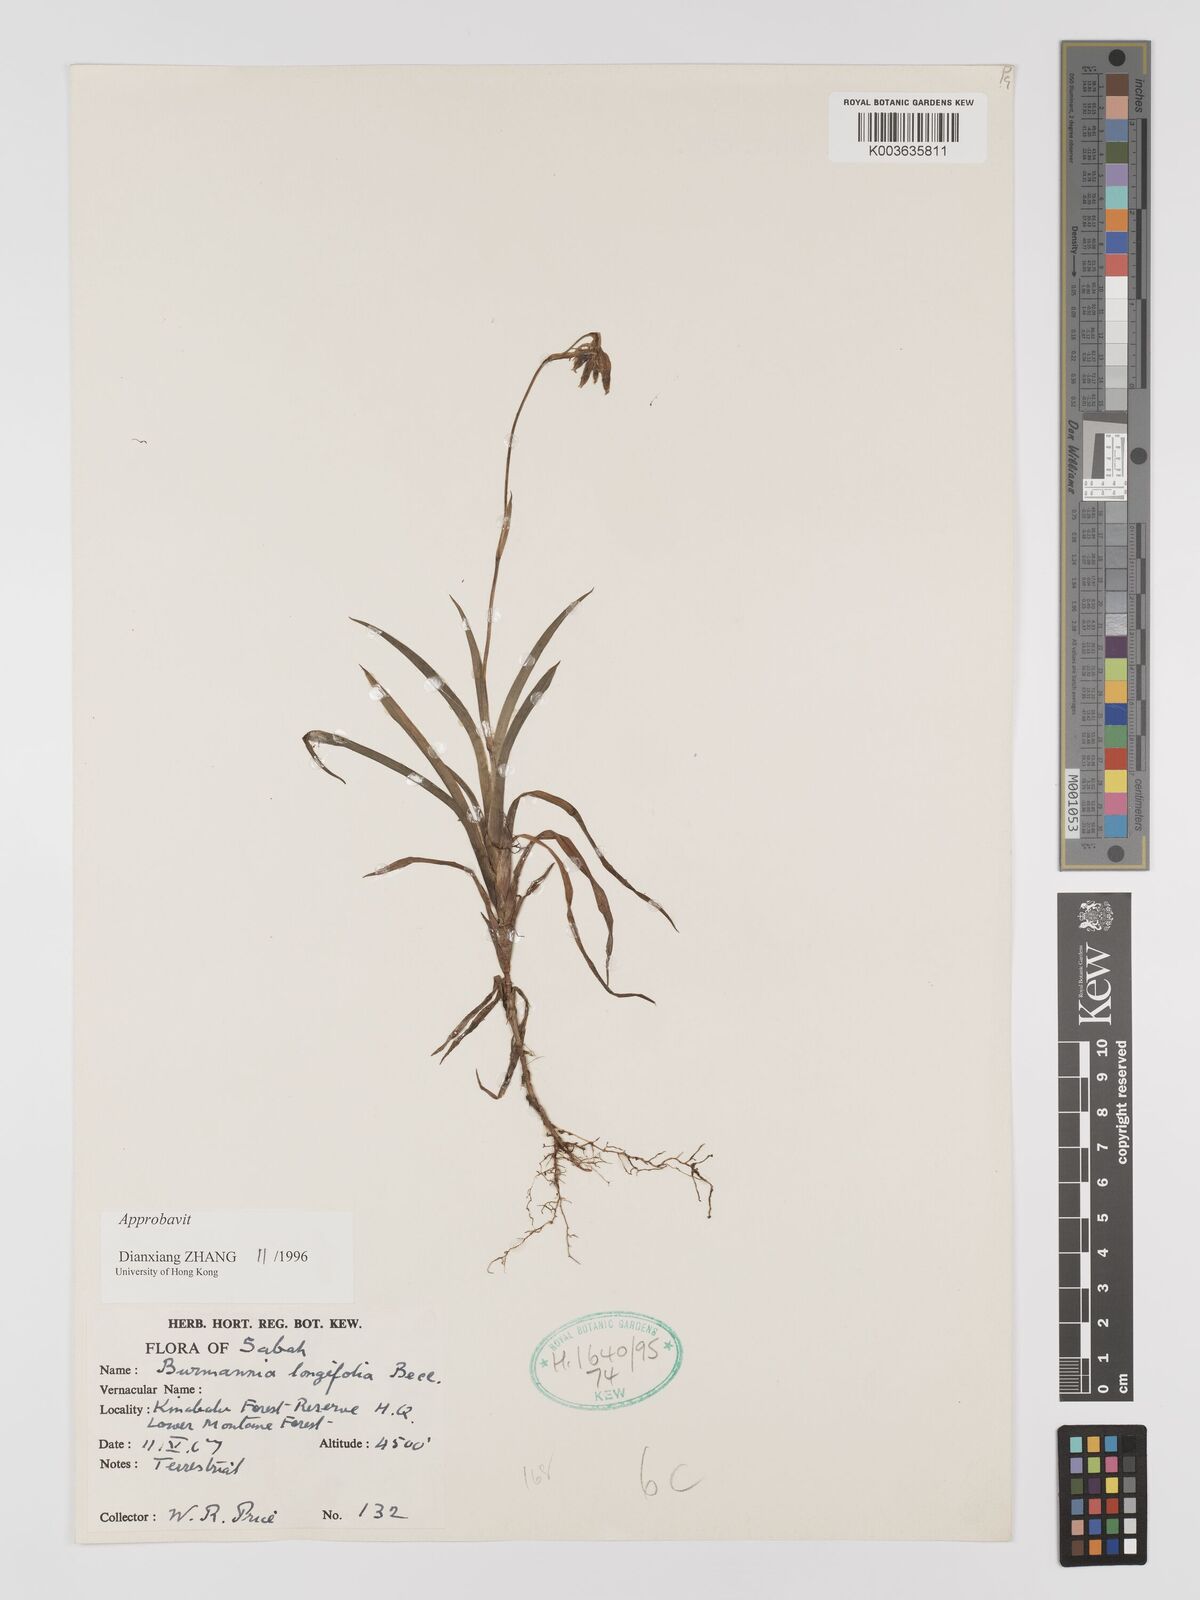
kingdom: Plantae
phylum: Tracheophyta
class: Liliopsida
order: Dioscoreales
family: Burmanniaceae
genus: Burmannia
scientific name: Burmannia longifolia
